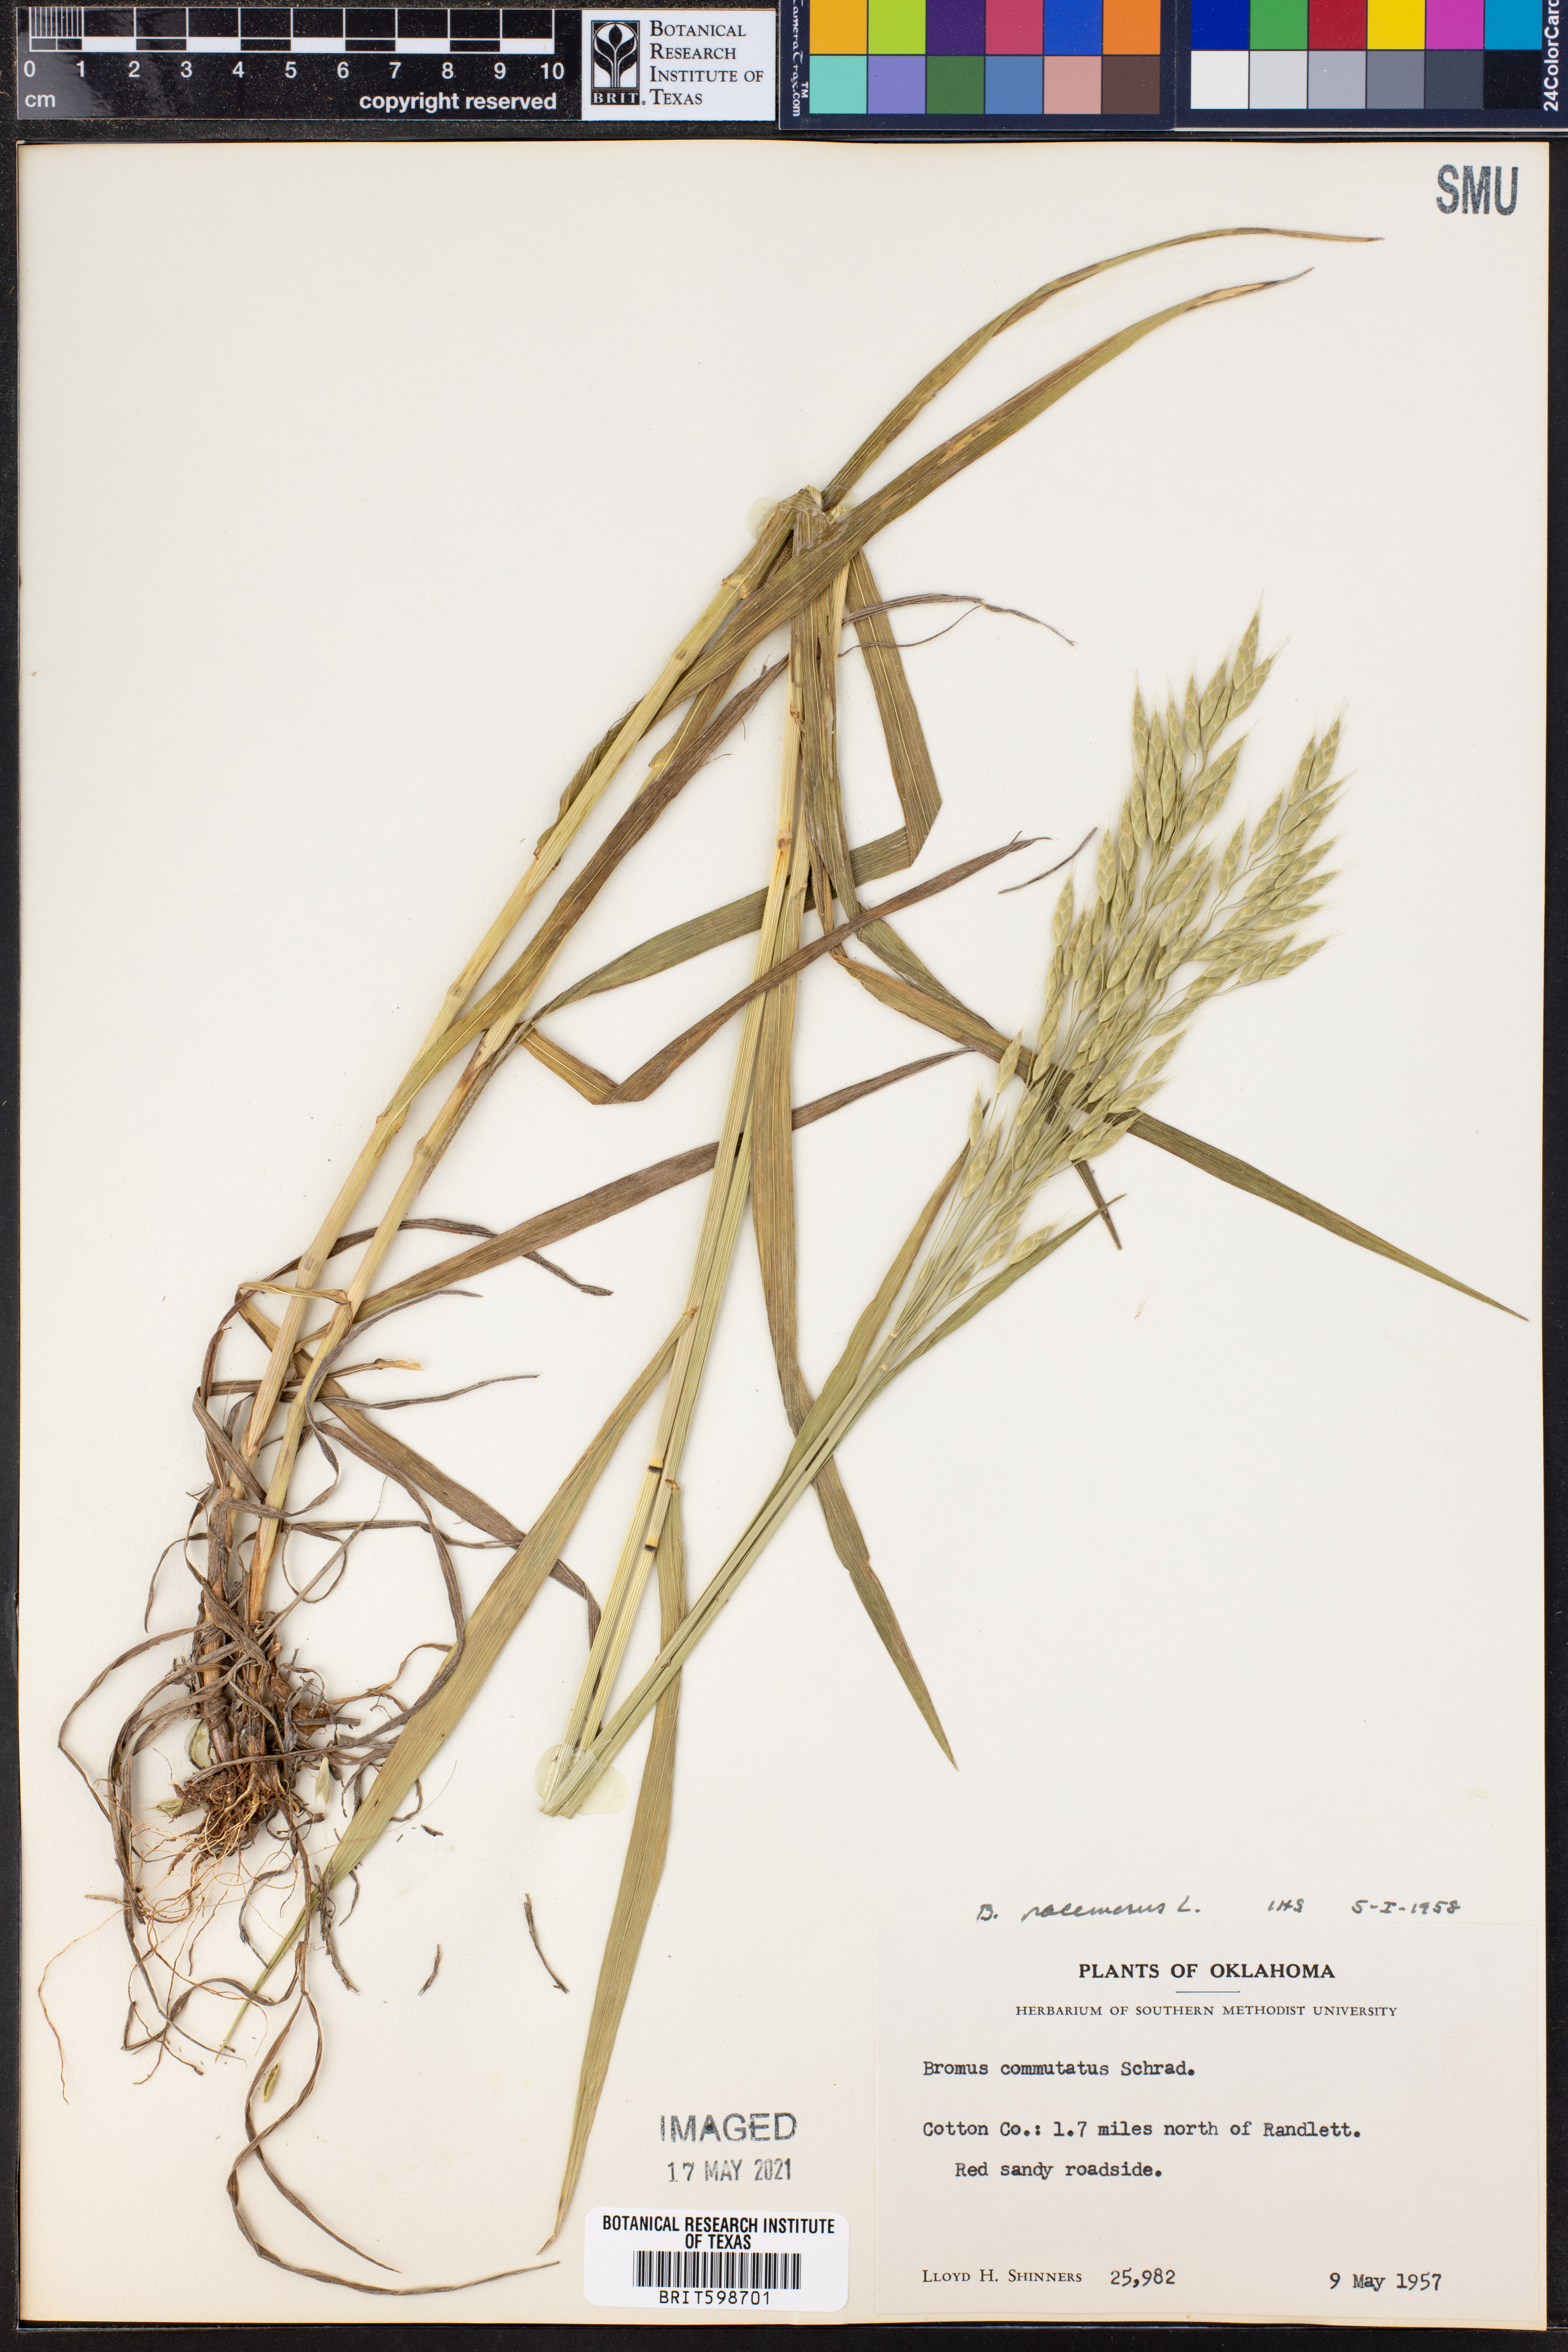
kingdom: Plantae
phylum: Tracheophyta
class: Liliopsida
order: Poales
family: Poaceae
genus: Bromus
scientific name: Bromus racemosus
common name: Bald brome
